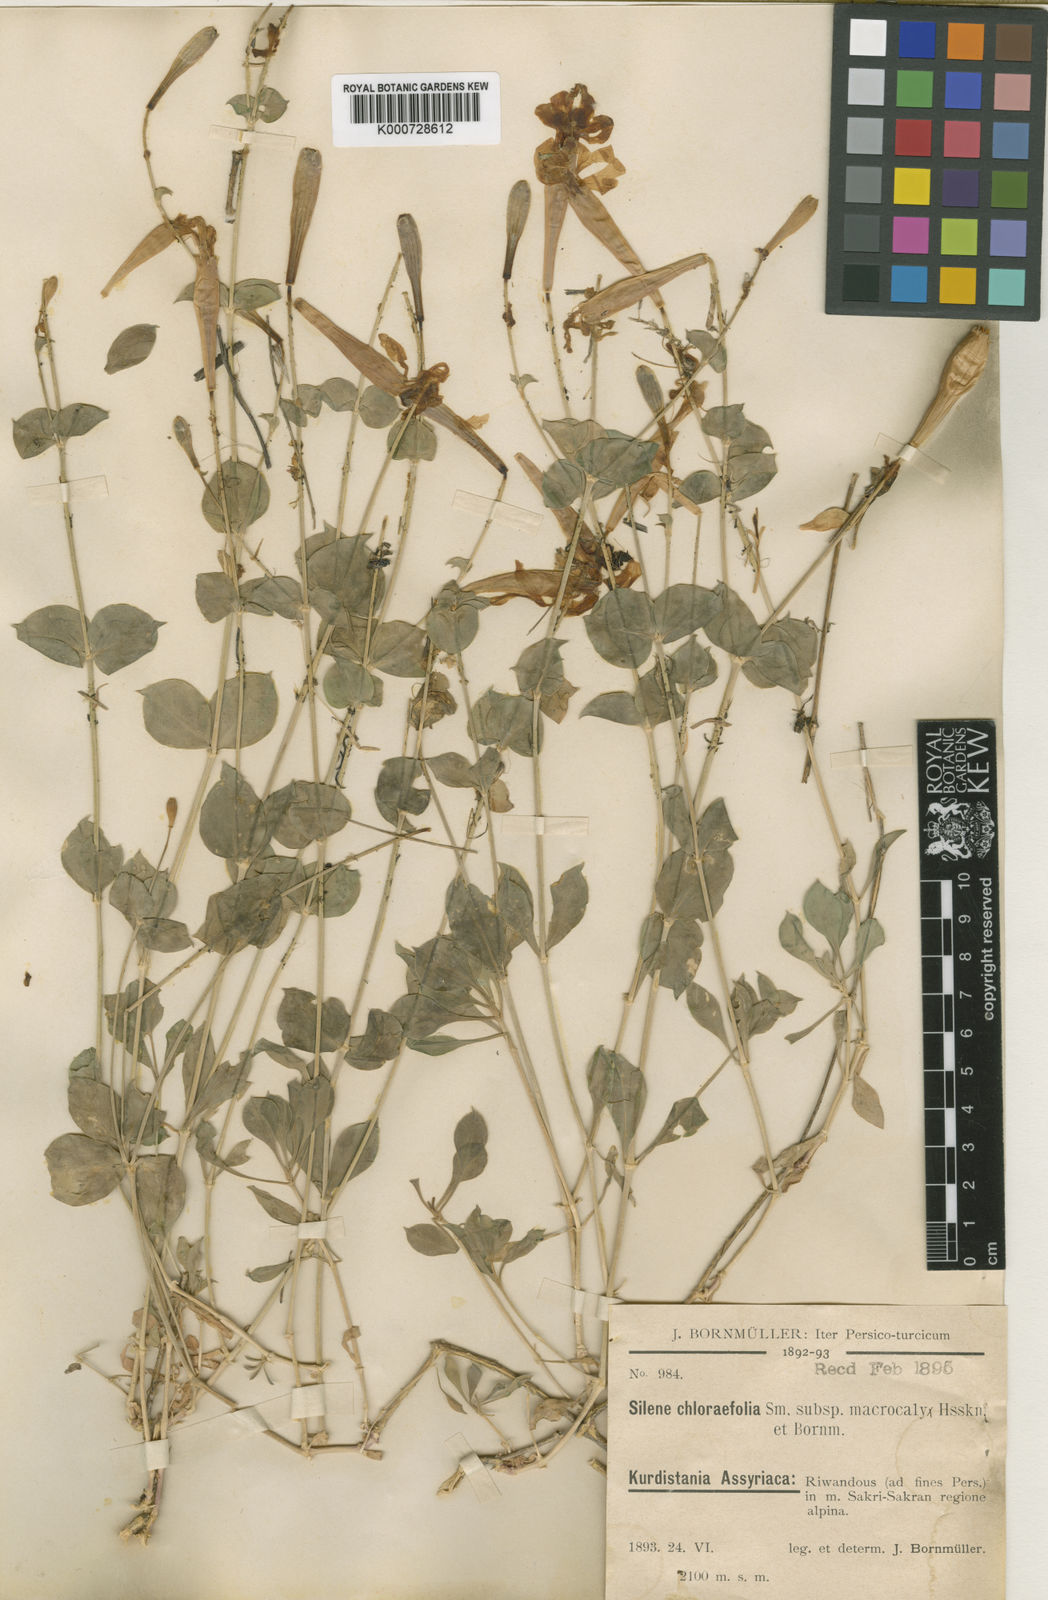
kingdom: Plantae
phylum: Tracheophyta
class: Magnoliopsida
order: Caryophyllales
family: Caryophyllaceae
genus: Silene
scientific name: Silene chlorifolia
